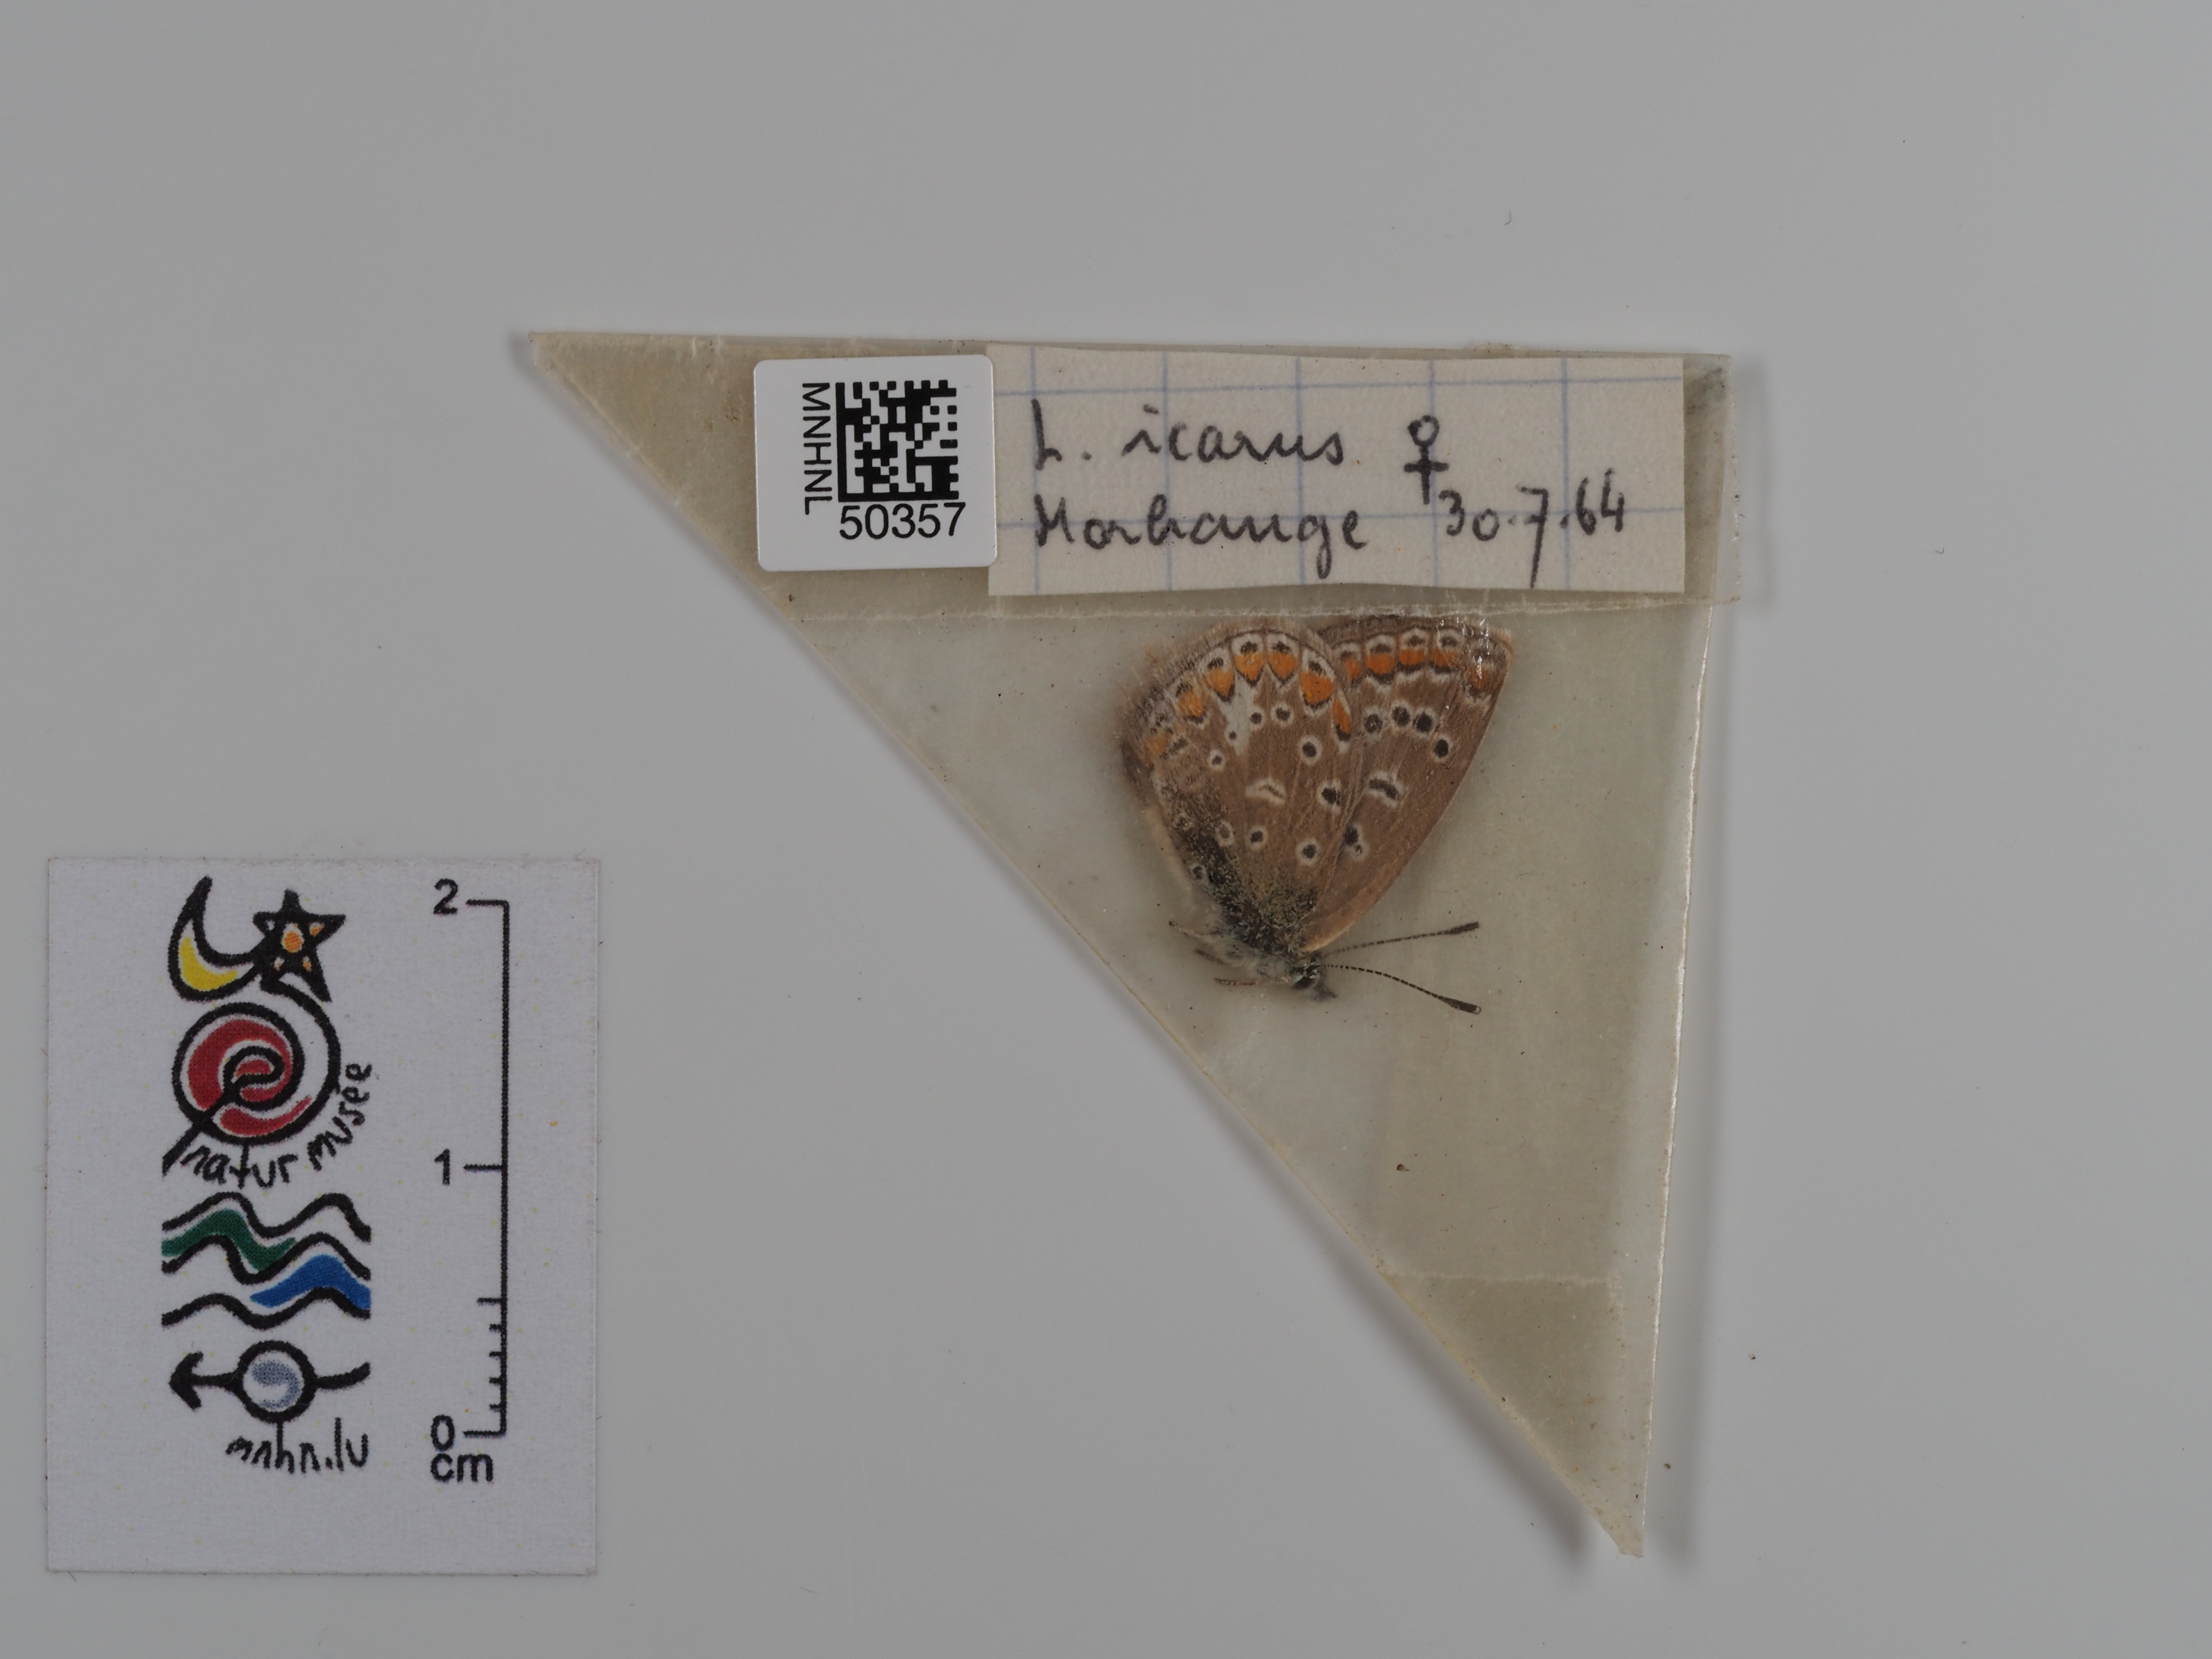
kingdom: Animalia
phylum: Arthropoda
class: Insecta
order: Lepidoptera
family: Lycaenidae
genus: Polyommatus
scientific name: Polyommatus icarus
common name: Common blue
